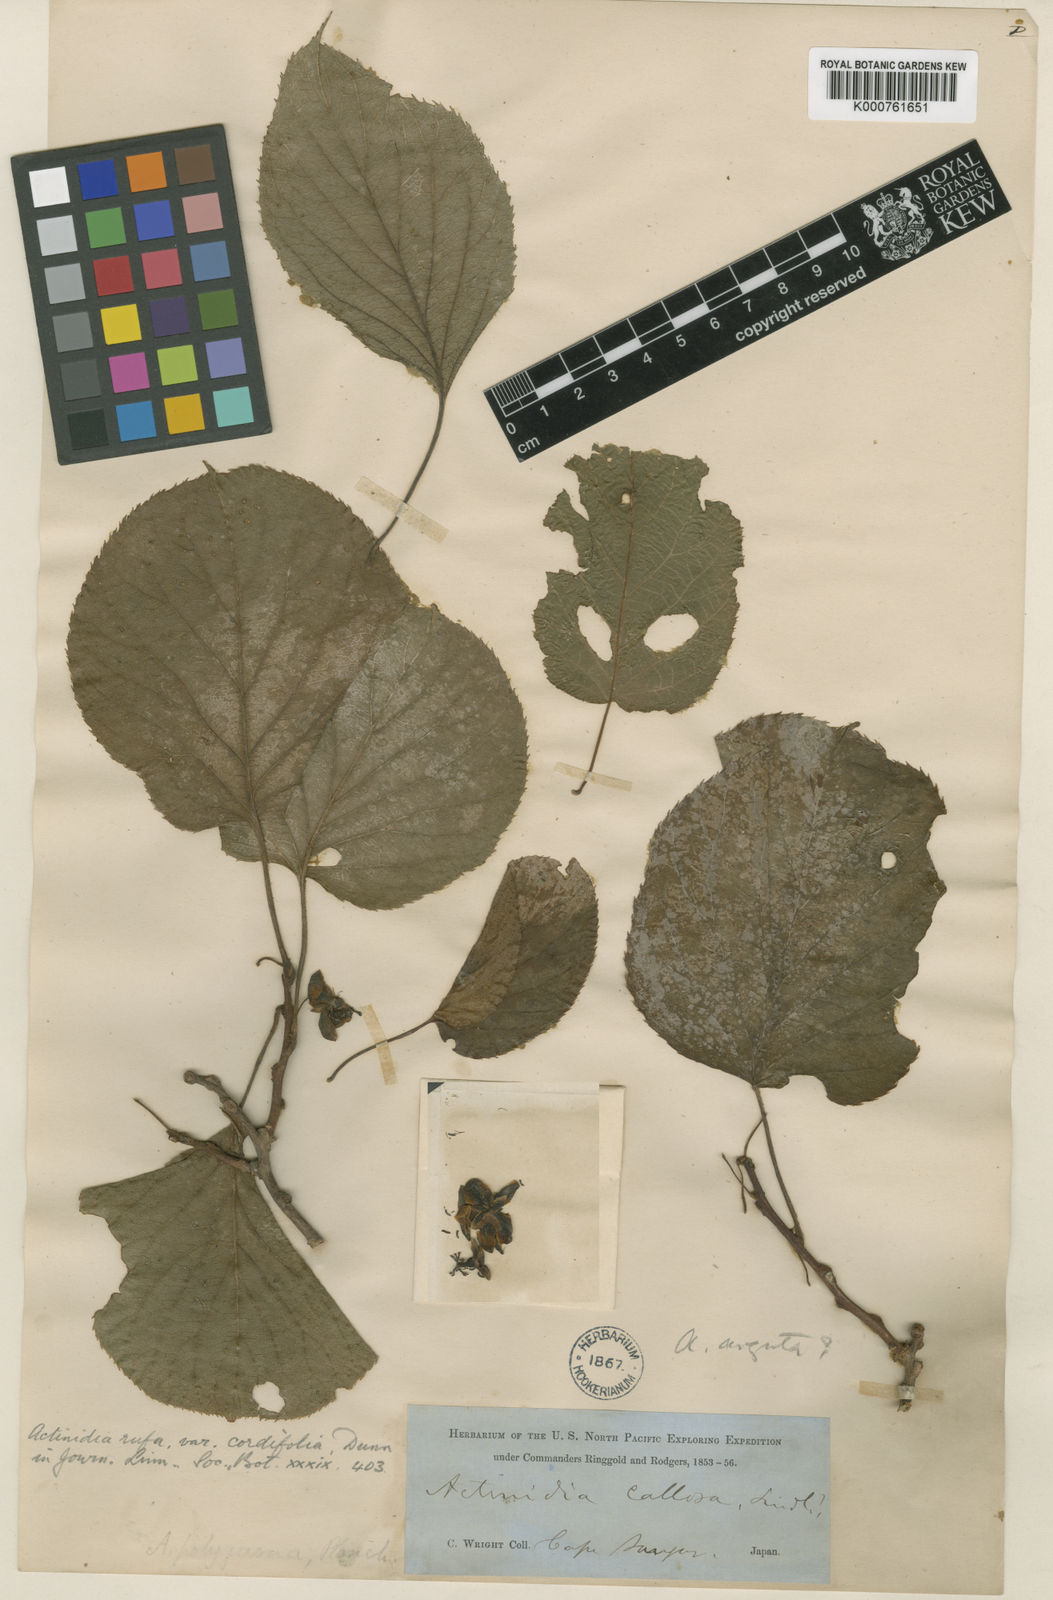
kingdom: Plantae
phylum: Tracheophyta
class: Magnoliopsida
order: Ericales
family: Actinidiaceae
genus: Actinidia
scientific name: Actinidia
